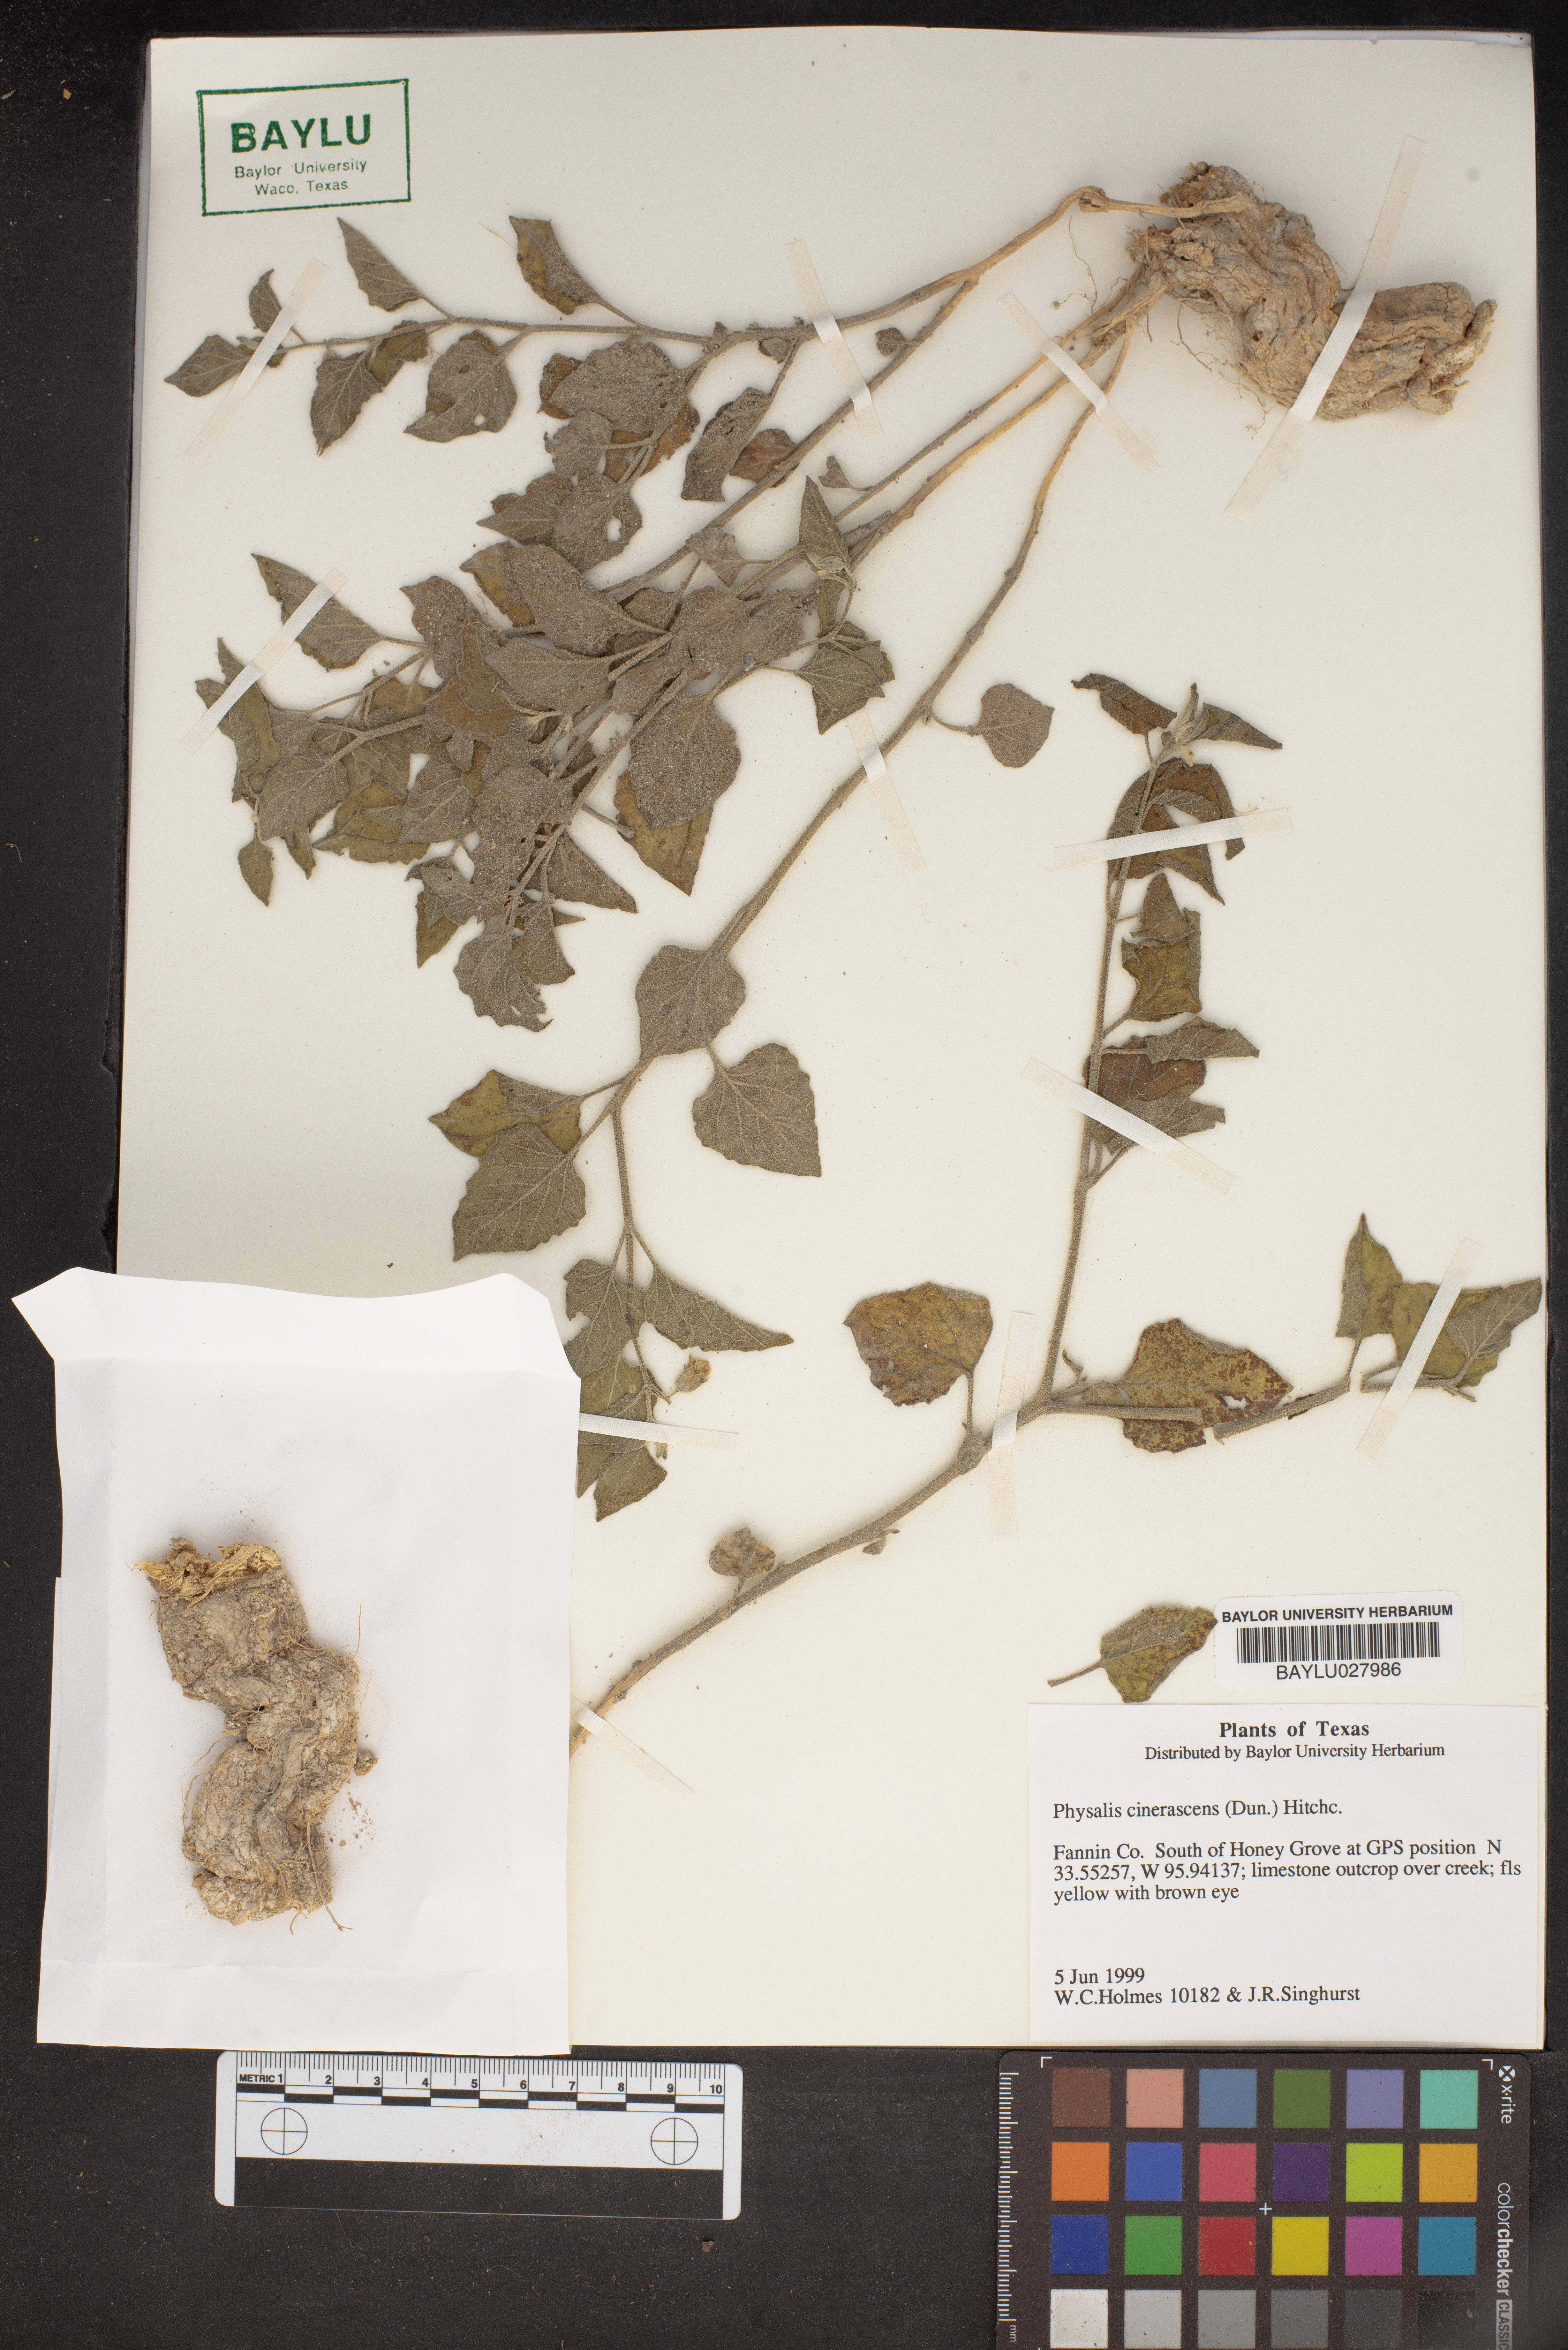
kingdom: Plantae
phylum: Tracheophyta
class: Magnoliopsida
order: Solanales
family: Solanaceae
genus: Physalis
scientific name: Physalis cinerascens
